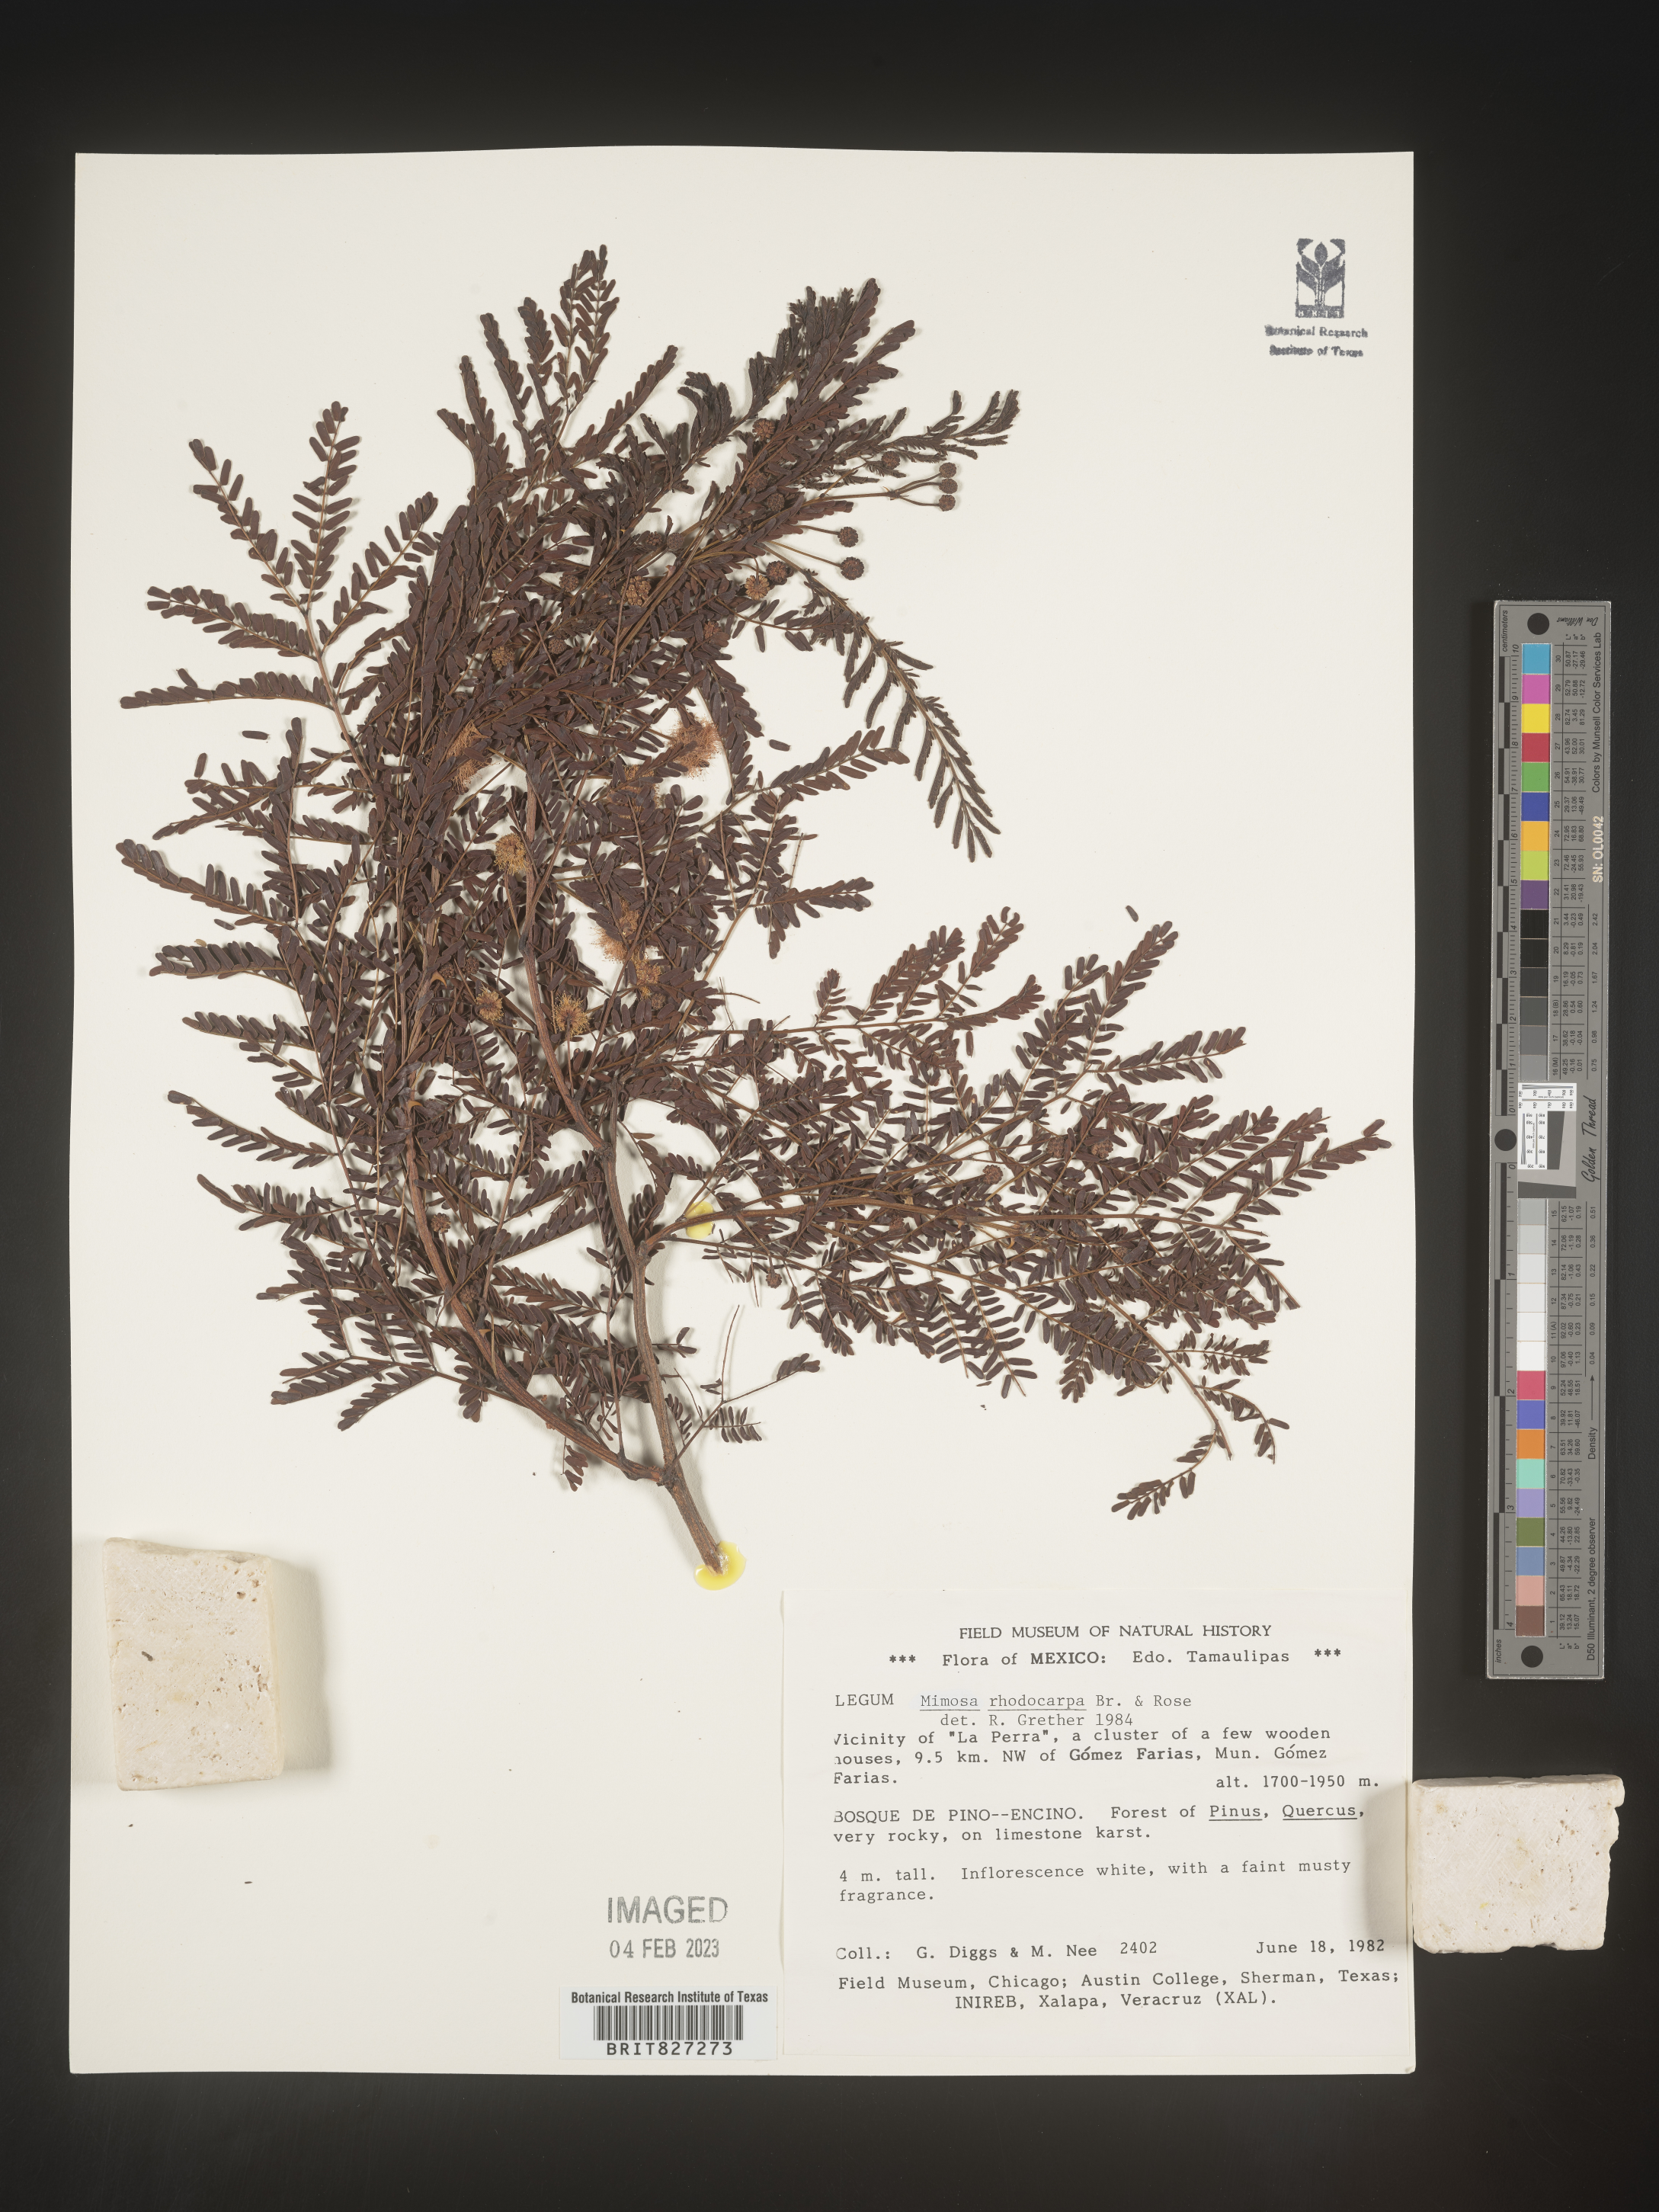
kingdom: Plantae
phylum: Tracheophyta
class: Magnoliopsida
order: Fabales
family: Fabaceae
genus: Mimosa
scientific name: Mimosa
